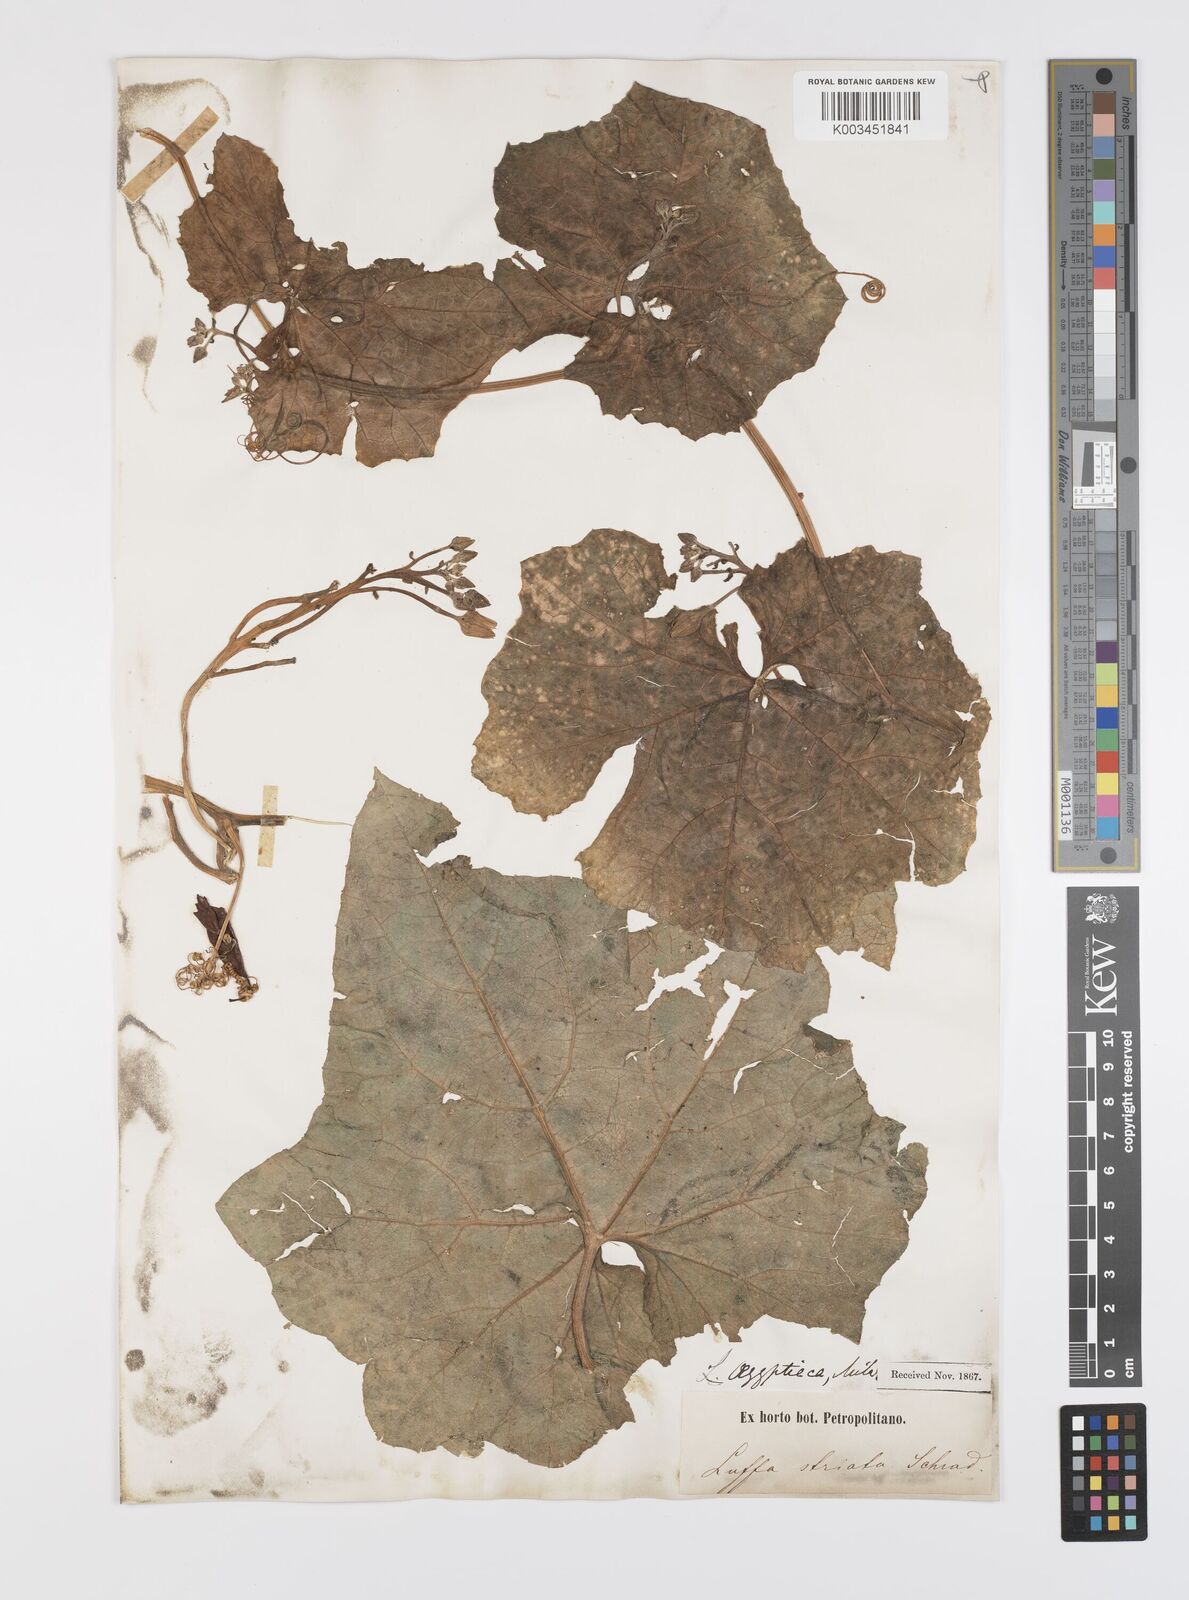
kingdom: Plantae
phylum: Tracheophyta
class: Magnoliopsida
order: Cucurbitales
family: Cucurbitaceae
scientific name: Cucurbitaceae
